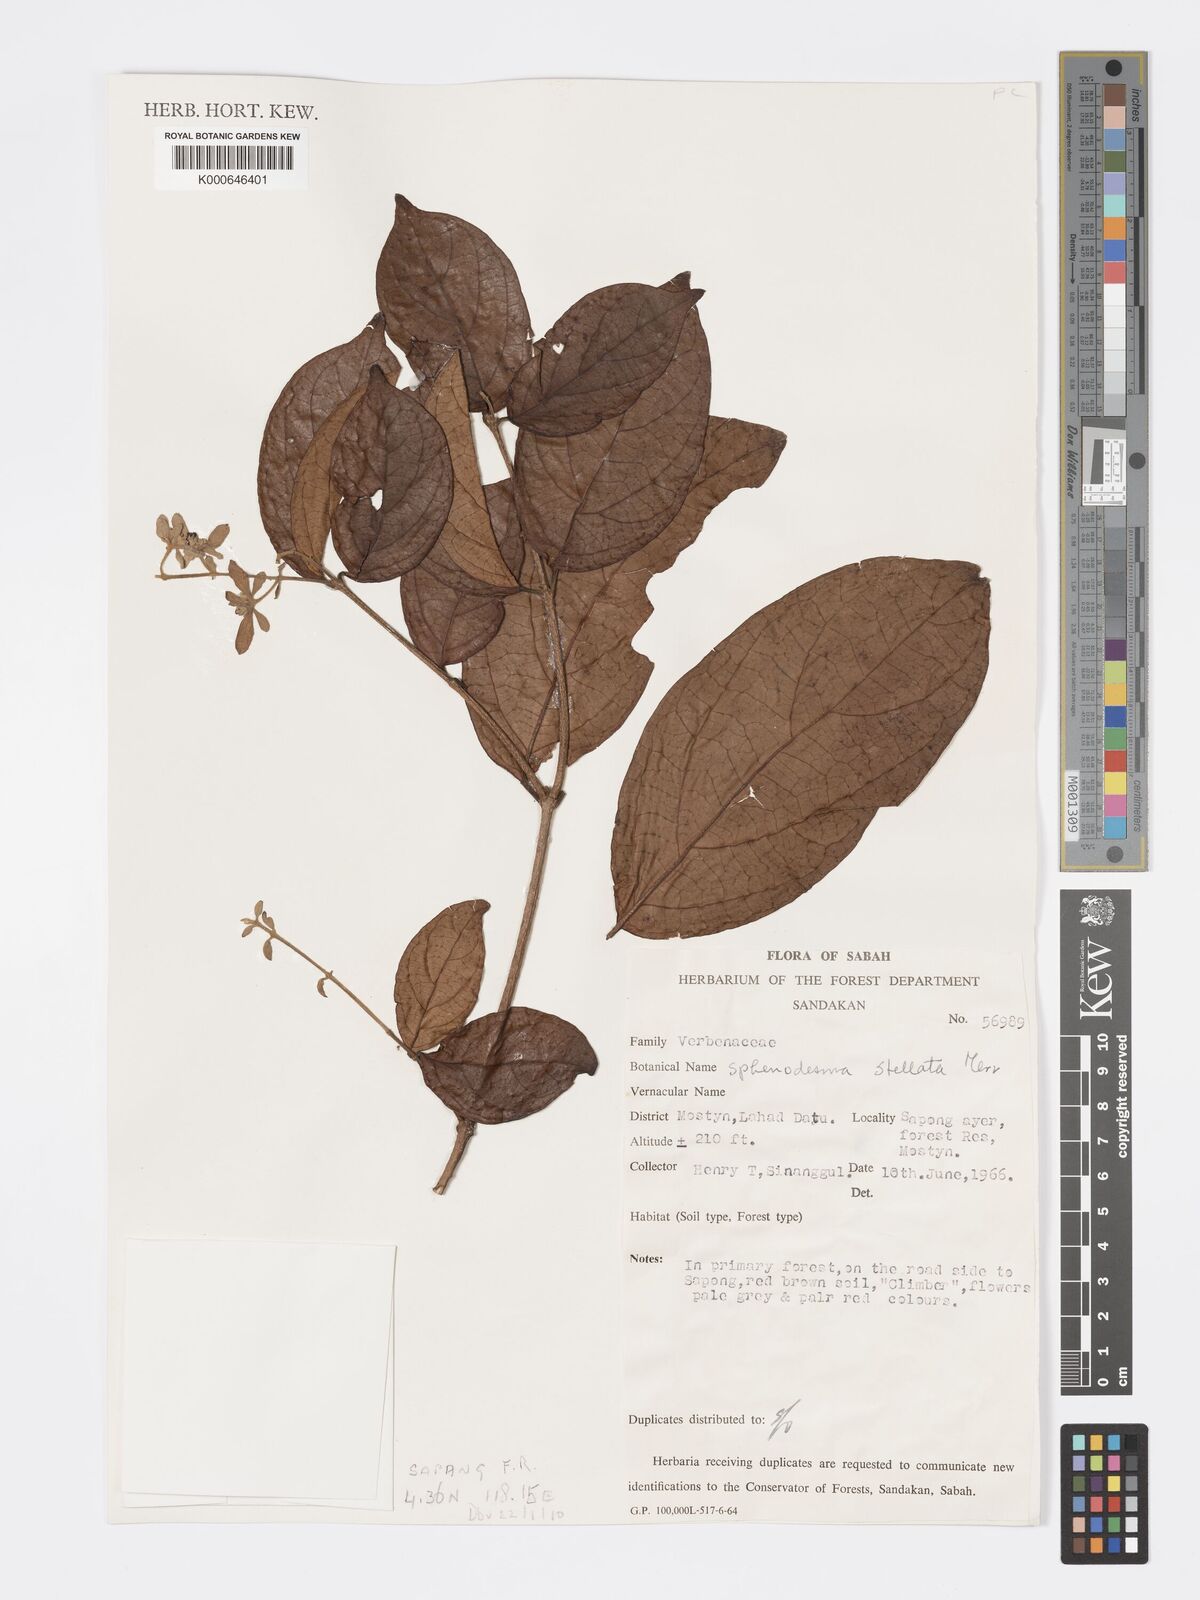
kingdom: Plantae
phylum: Tracheophyta
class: Magnoliopsida
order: Lamiales
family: Lamiaceae
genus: Sphenodesme
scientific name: Sphenodesme stellata
